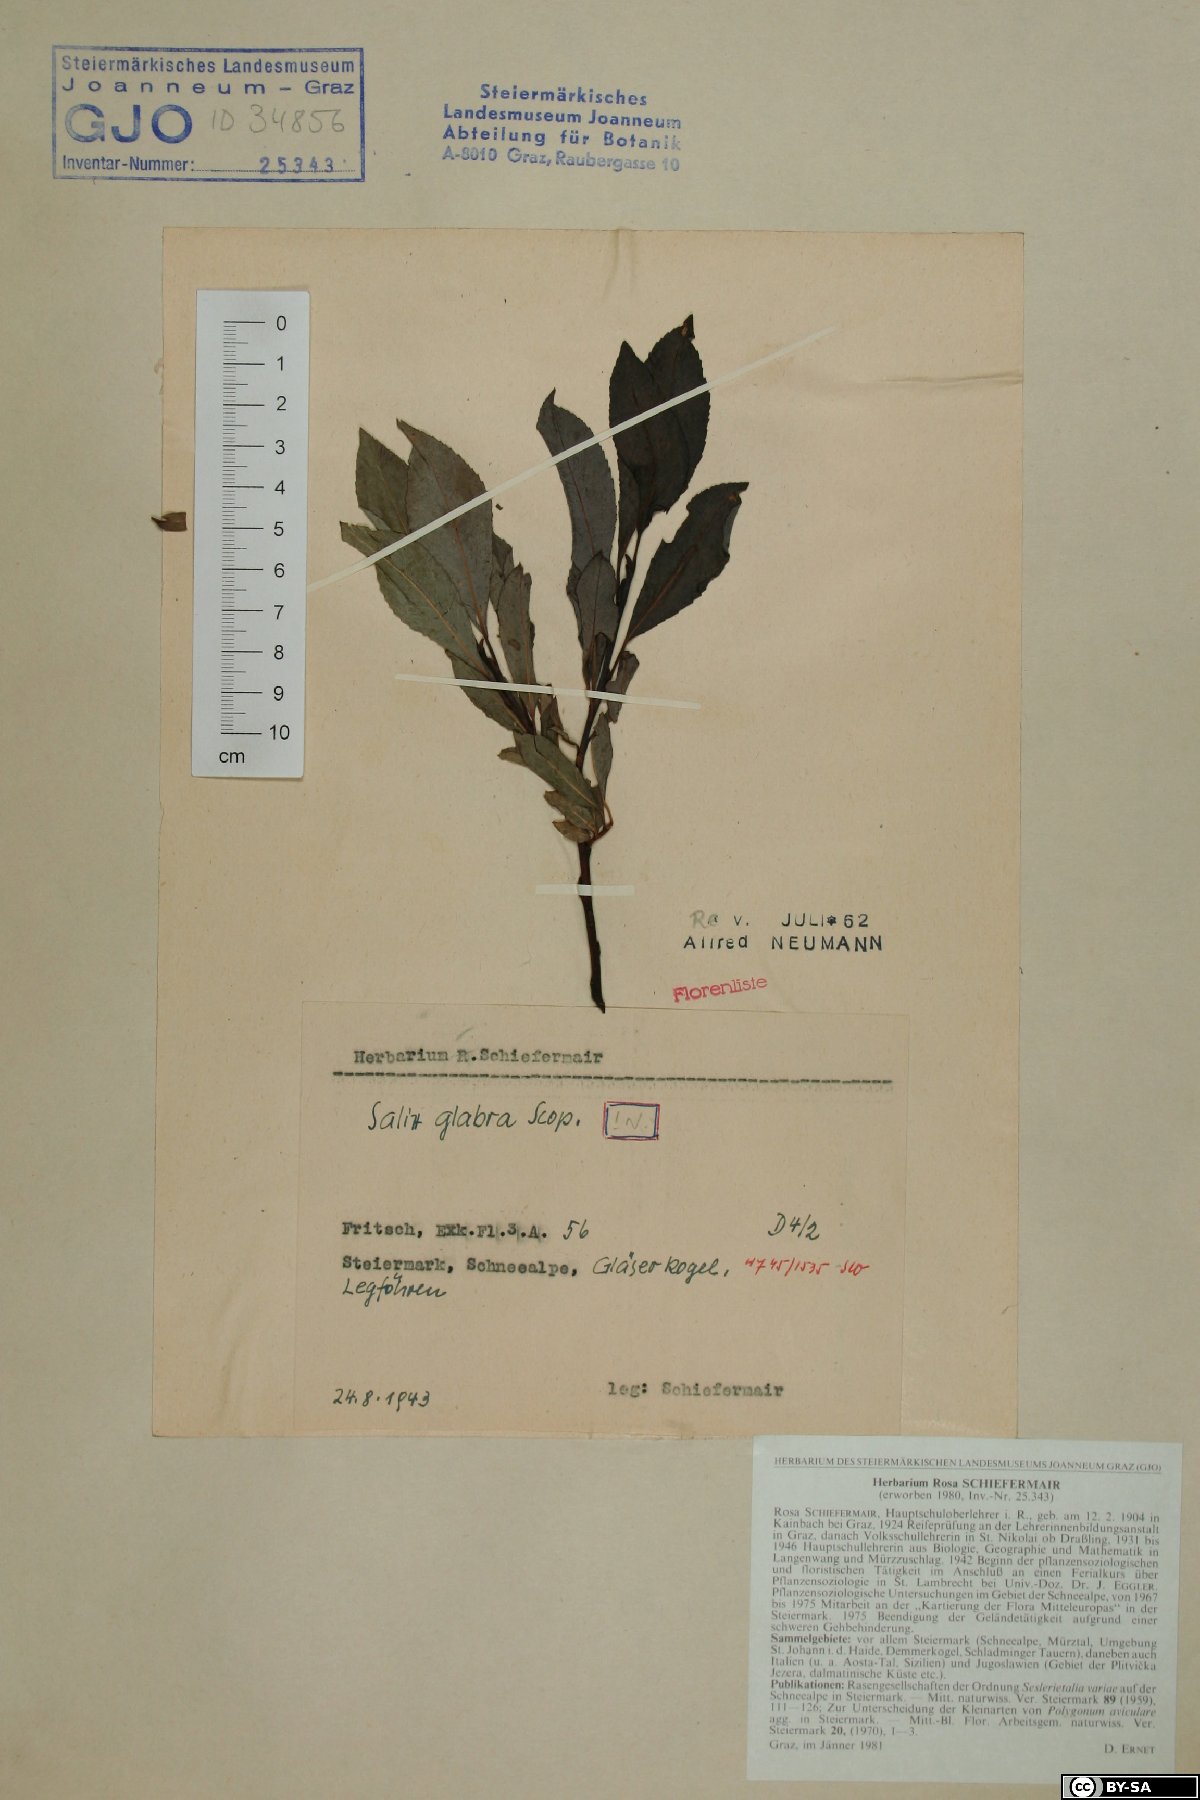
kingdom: Plantae
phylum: Tracheophyta
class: Magnoliopsida
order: Malpighiales
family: Salicaceae
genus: Salix
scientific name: Salix glabra
